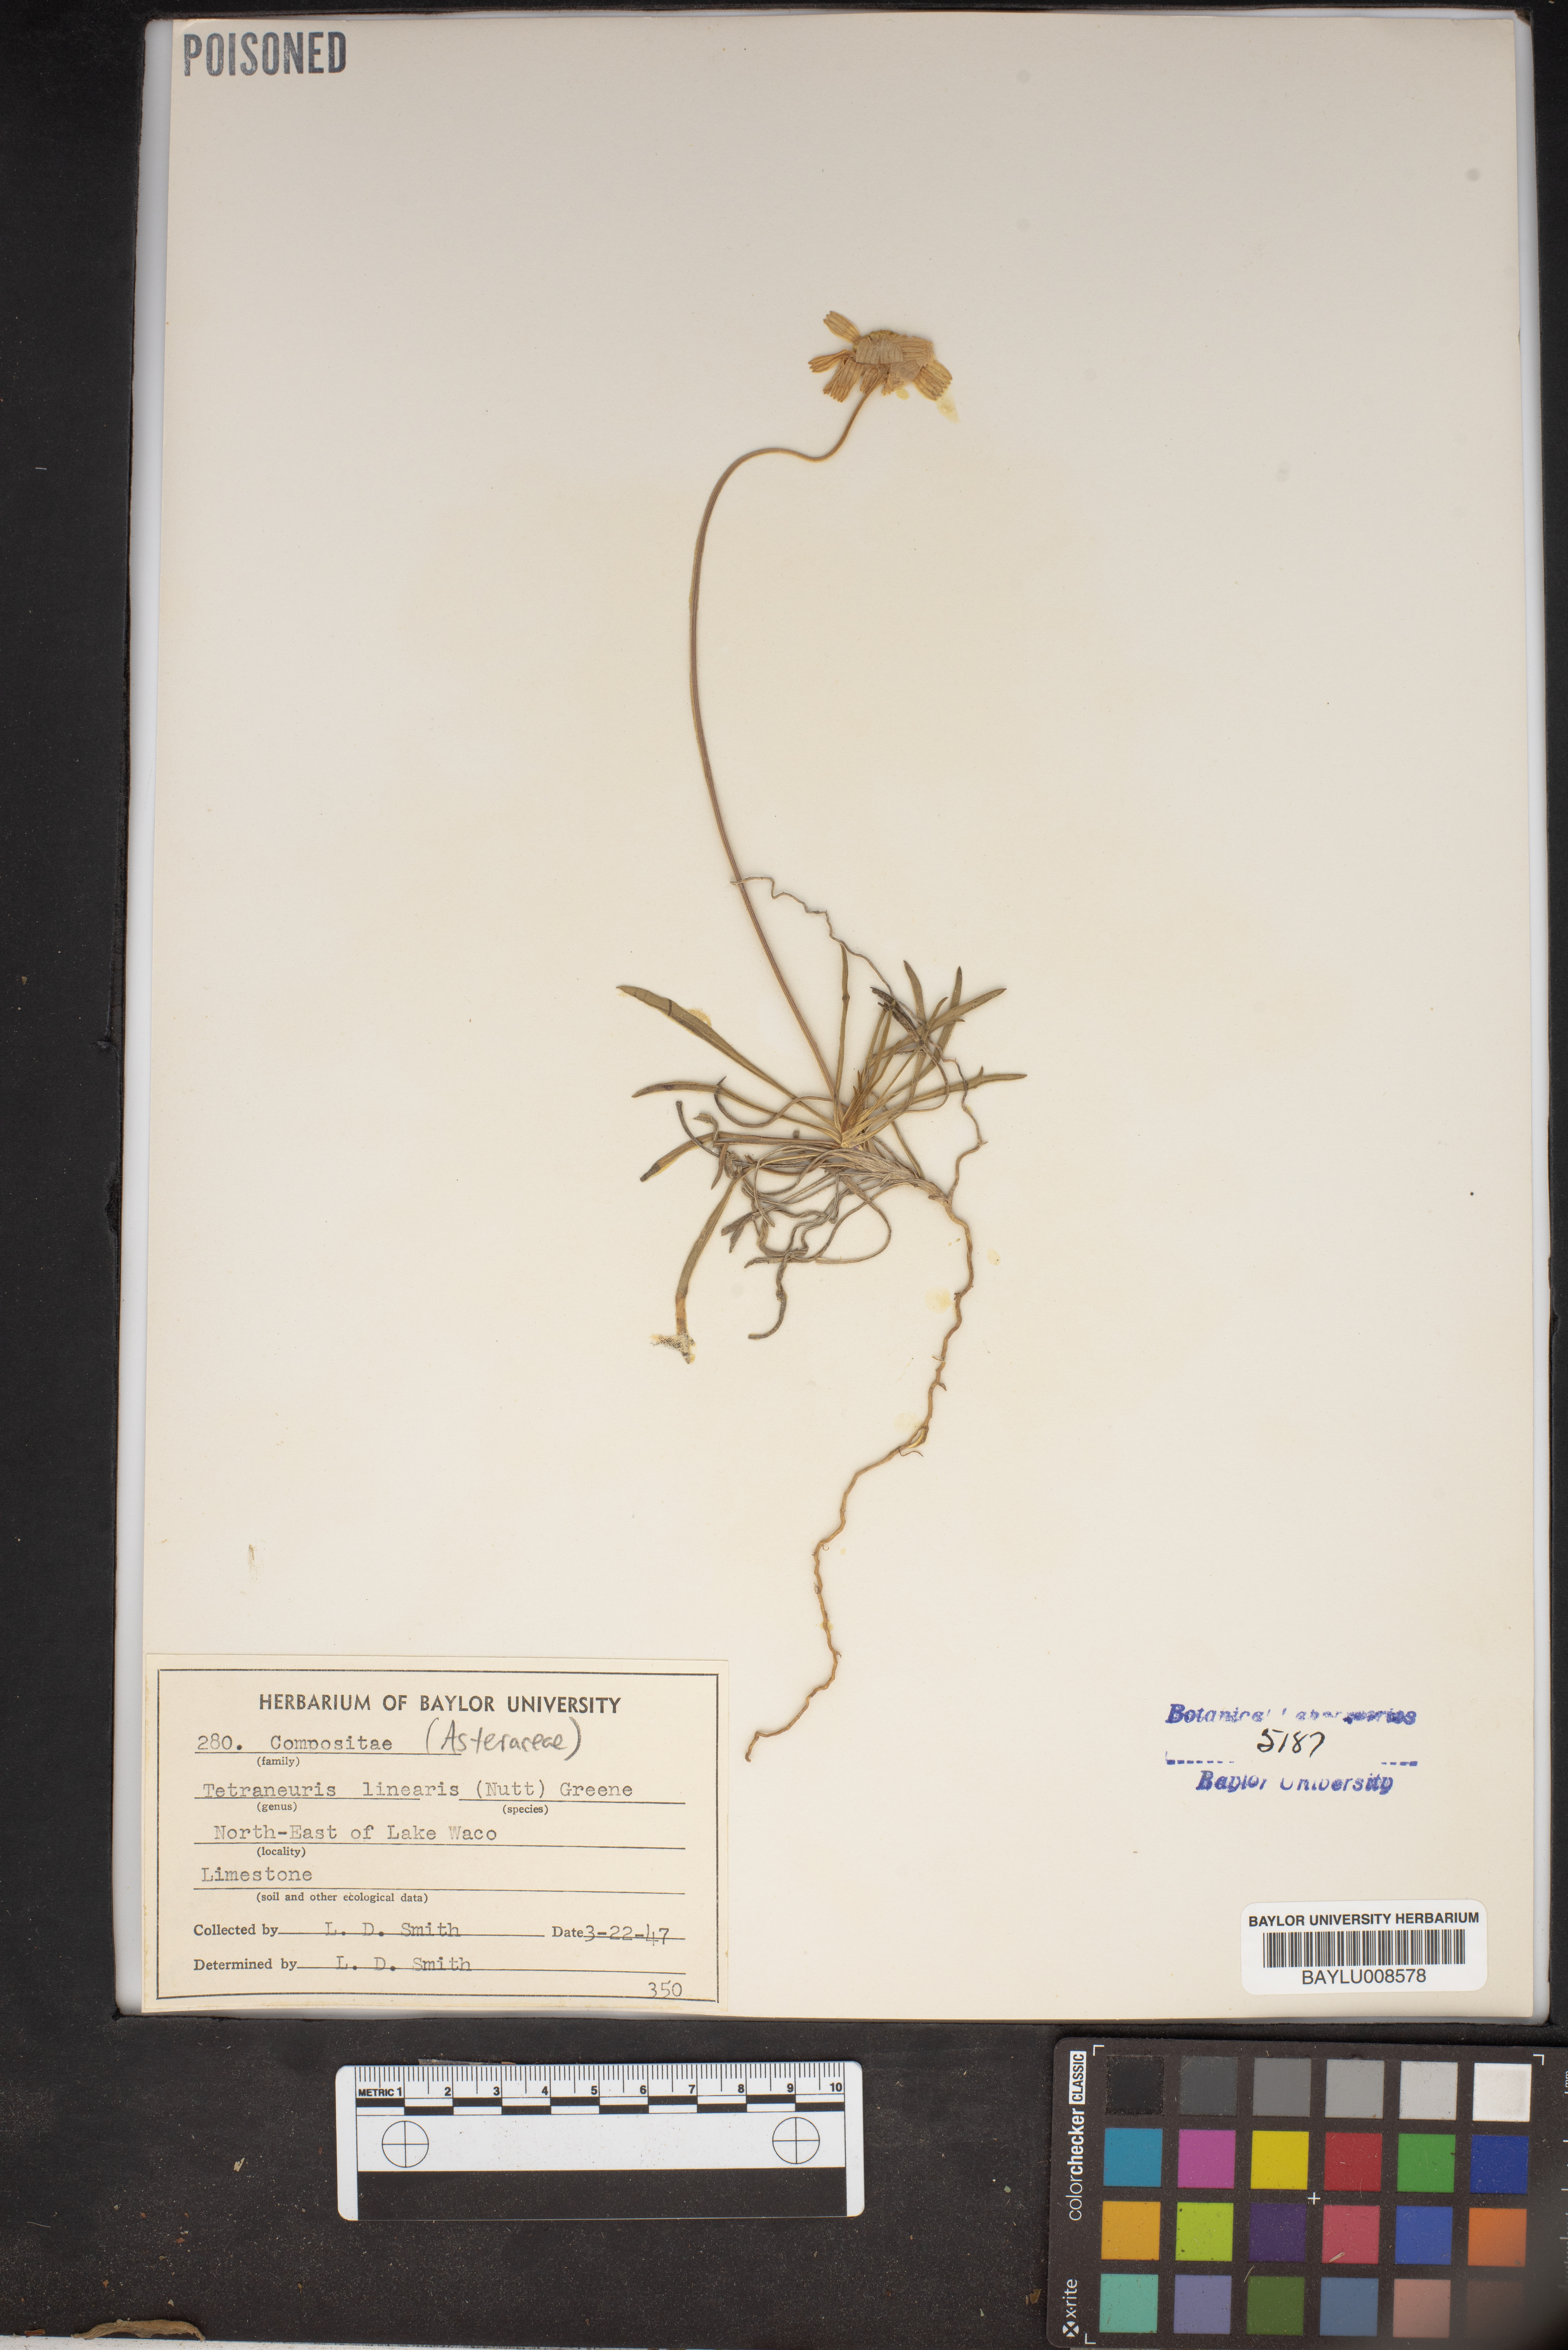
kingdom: Plantae
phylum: Tracheophyta
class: Magnoliopsida
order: Asterales
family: Asteraceae
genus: Tetraneuris
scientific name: Tetraneuris scaposa
